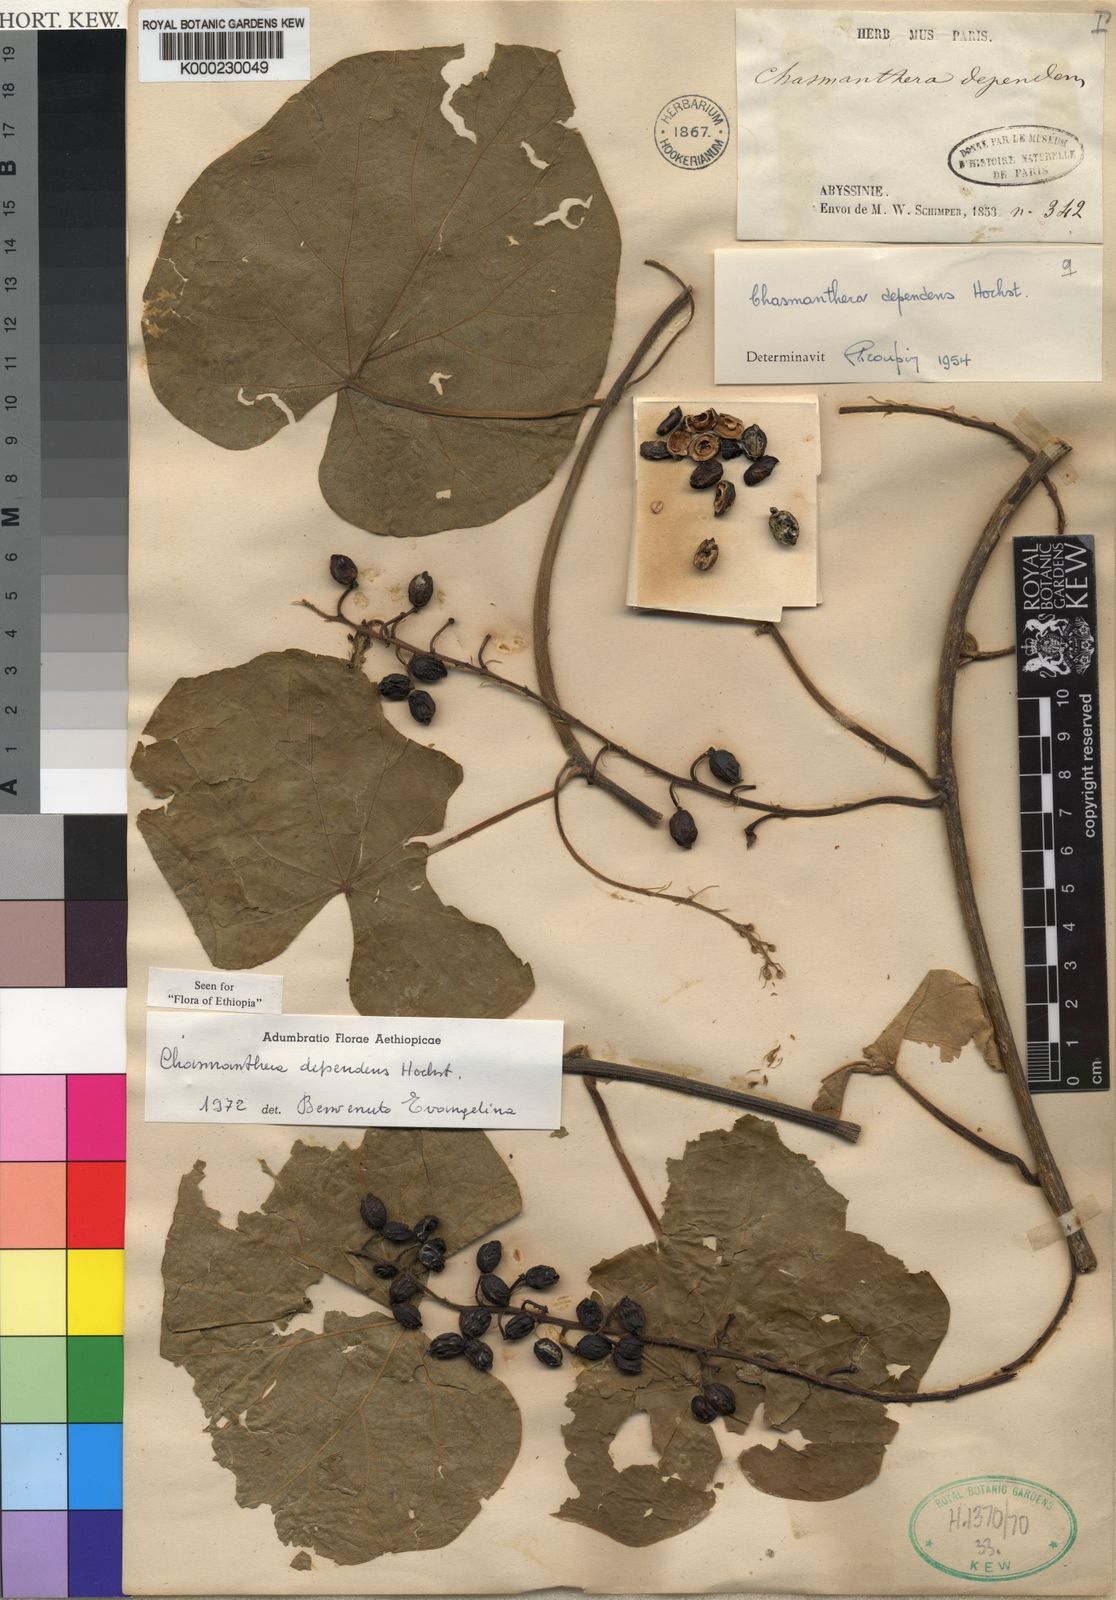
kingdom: Plantae
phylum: Tracheophyta
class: Magnoliopsida
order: Ranunculales
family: Menispermaceae
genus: Chasmanthera
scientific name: Chasmanthera dependens
